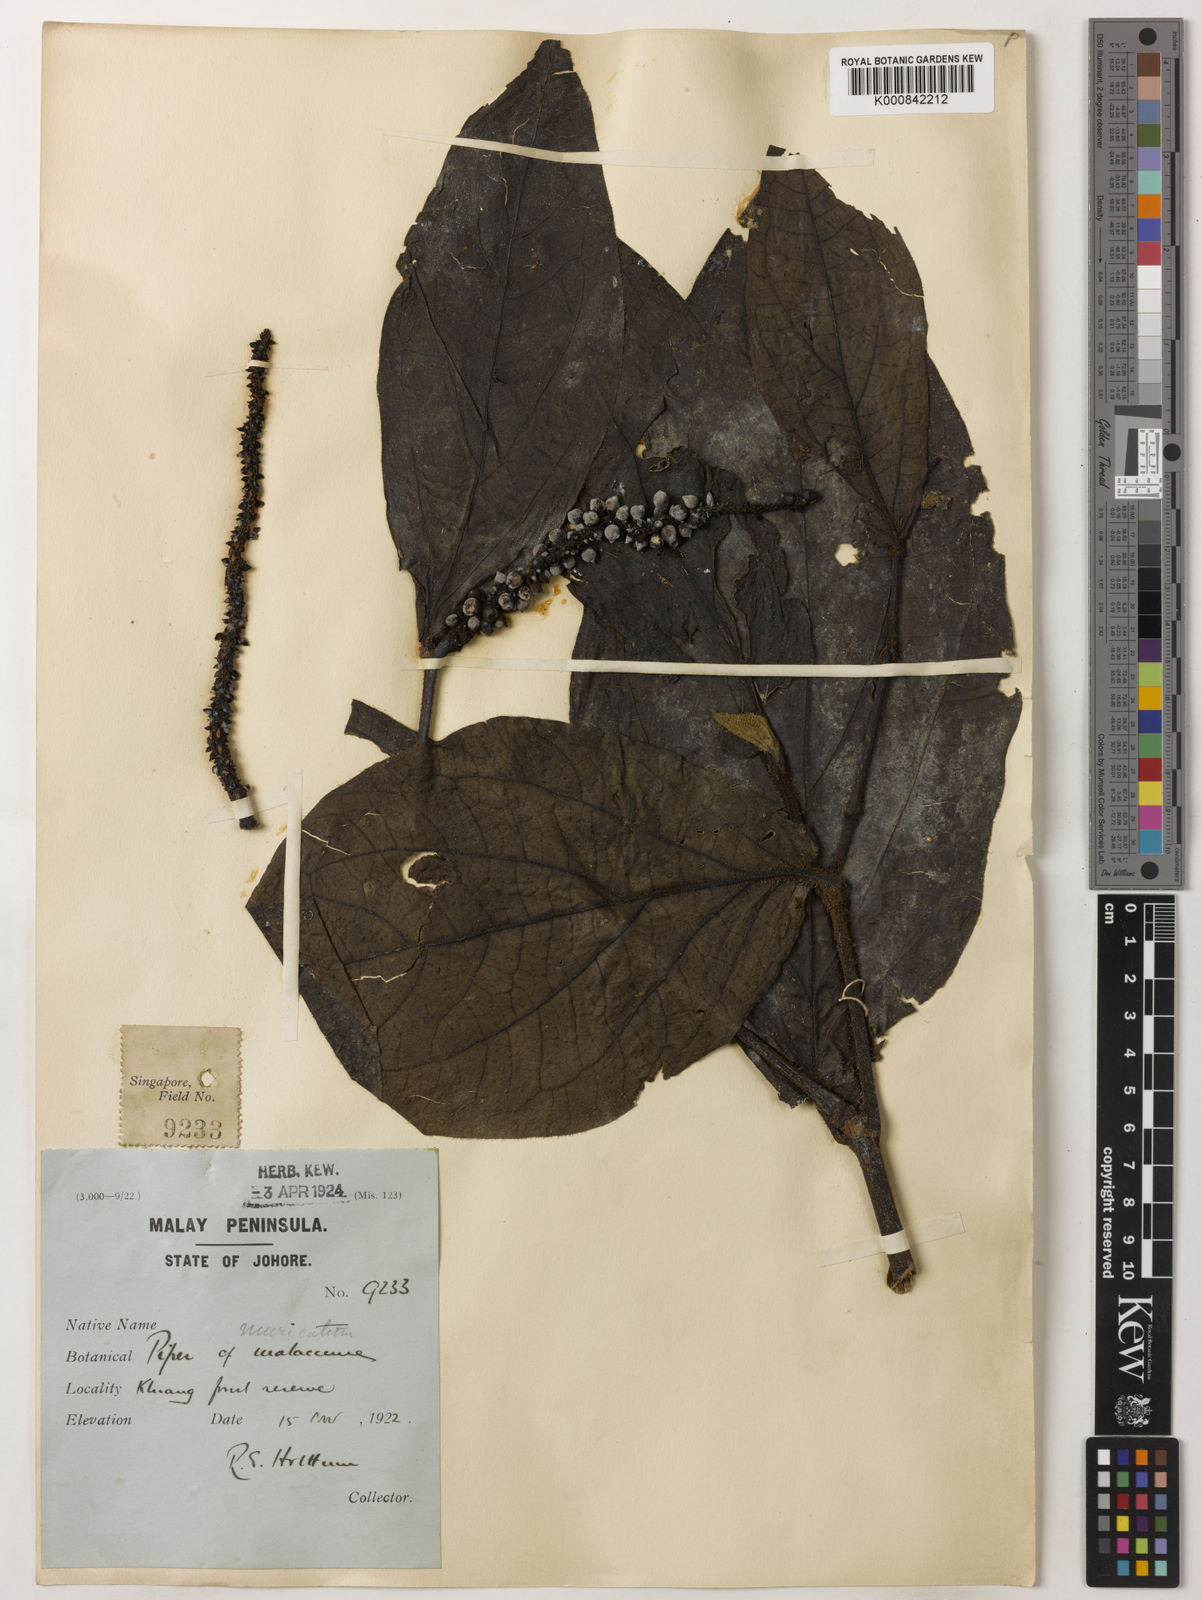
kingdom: Plantae
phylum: Tracheophyta
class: Magnoliopsida
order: Piperales
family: Piperaceae
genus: Piper
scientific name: Piper muricatum
